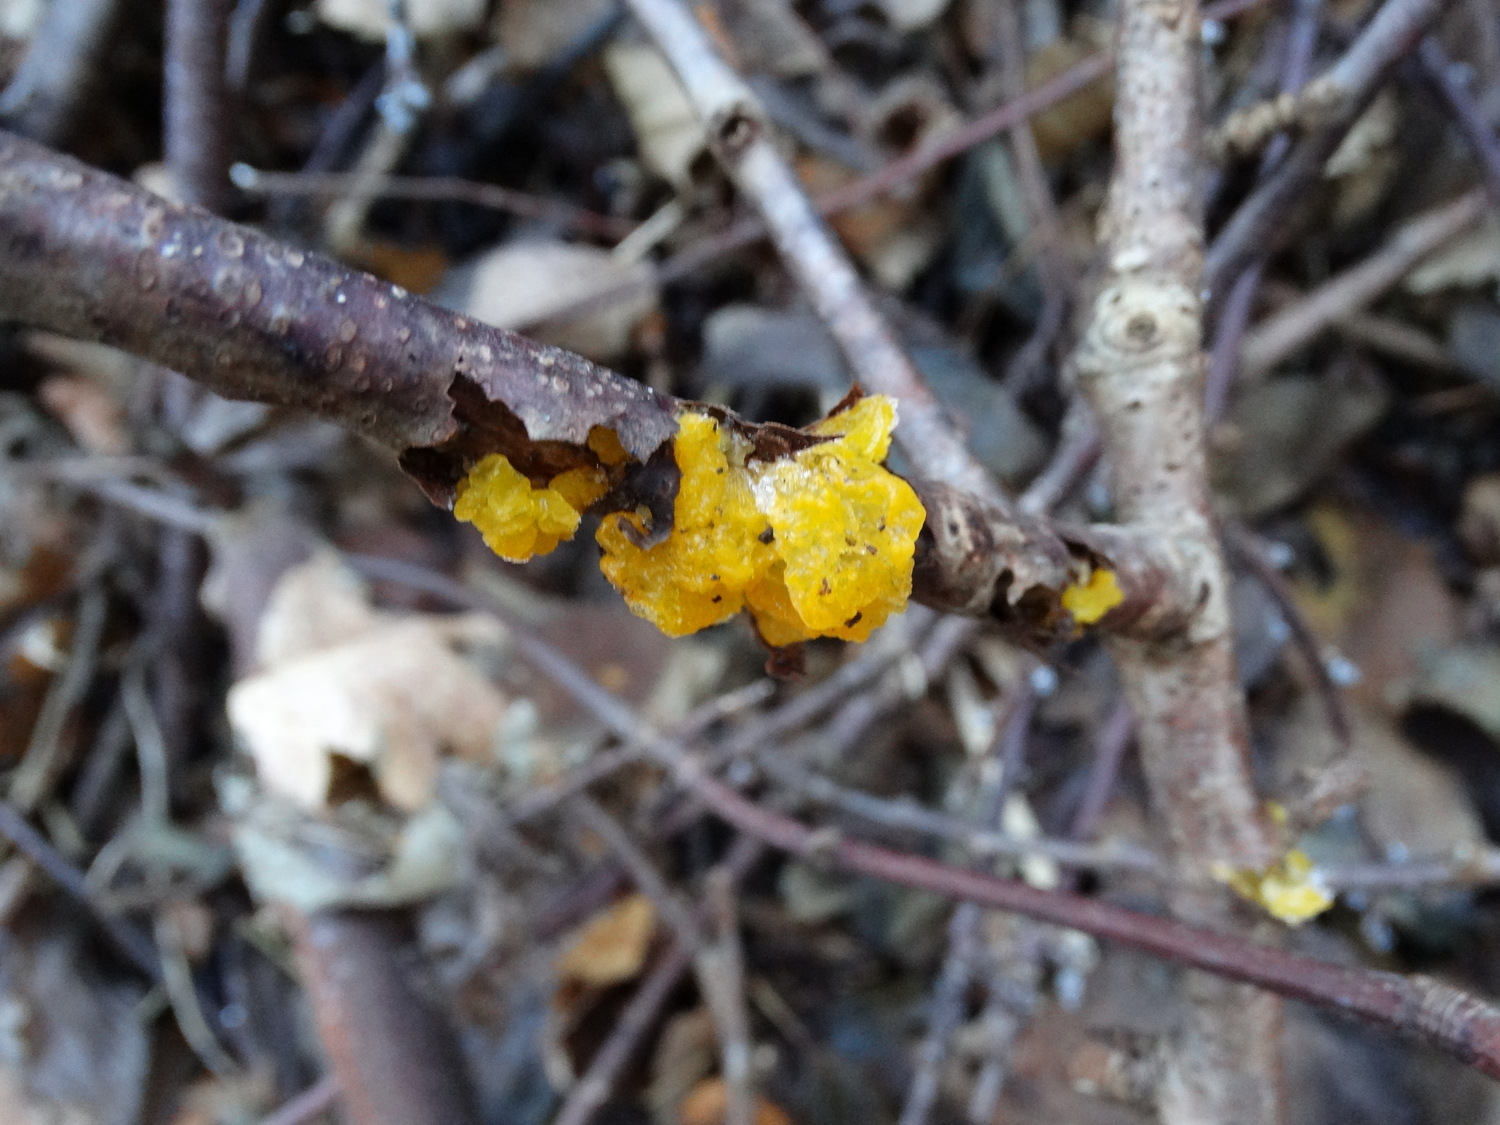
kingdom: Fungi
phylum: Basidiomycota
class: Tremellomycetes
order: Tremellales
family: Tremellaceae
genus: Tremella
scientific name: Tremella mesenterica
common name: gul bævresvamp
